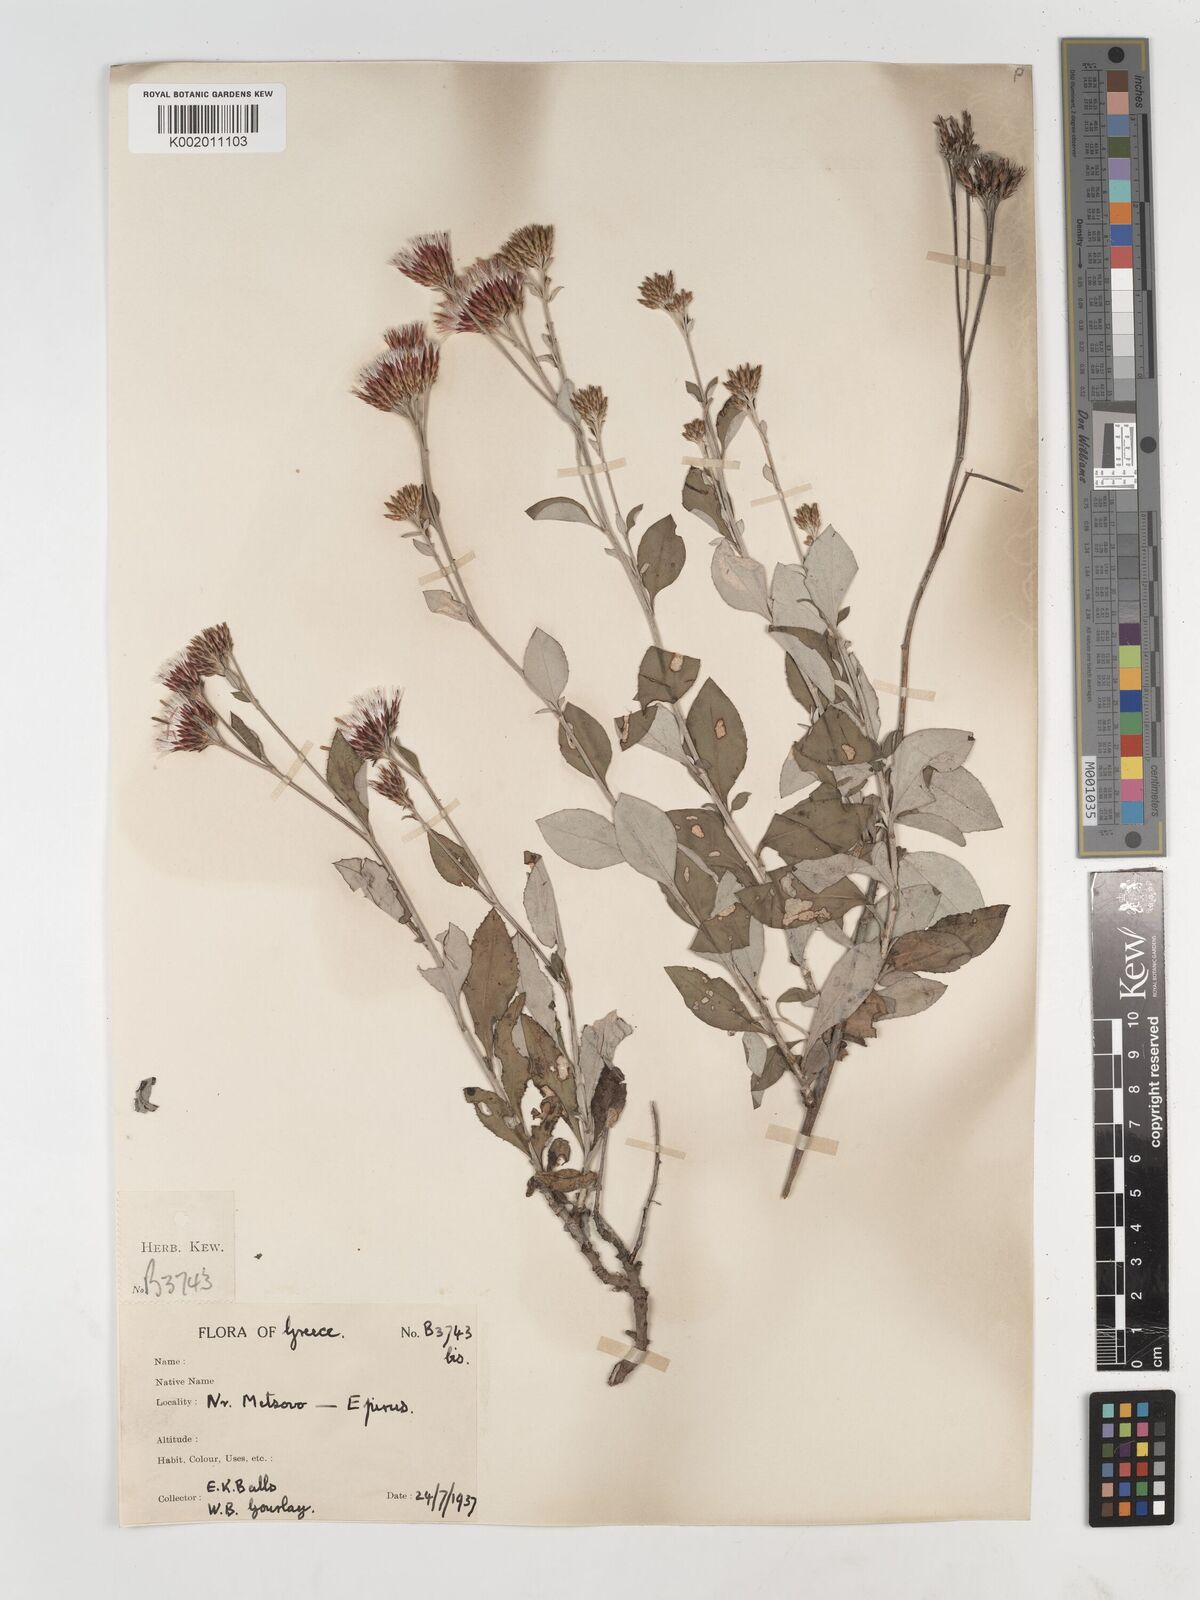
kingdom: Plantae
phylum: Tracheophyta
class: Magnoliopsida
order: Asterales
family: Asteraceae
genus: Staehelina
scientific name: Staehelina uniflosculosa
